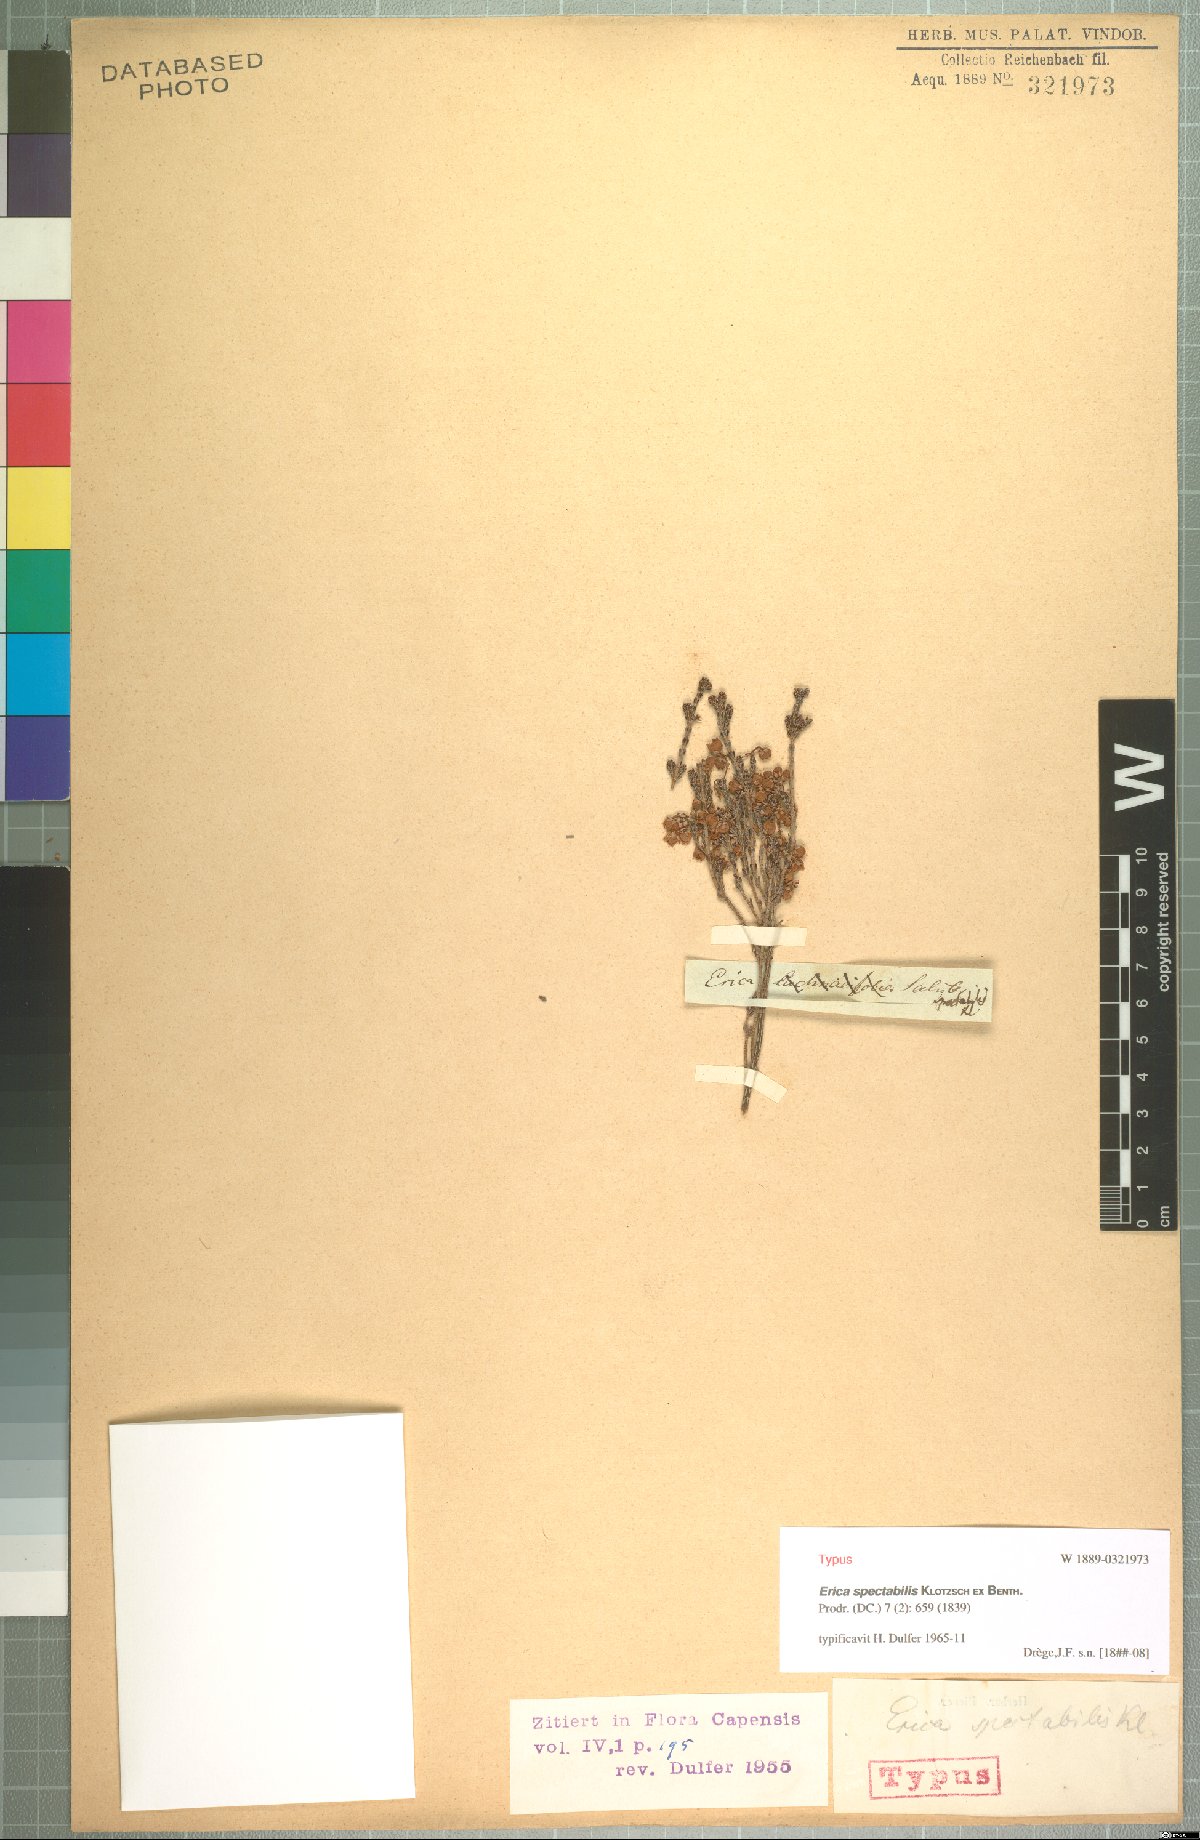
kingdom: Plantae
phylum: Tracheophyta
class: Magnoliopsida
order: Ericales
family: Ericaceae
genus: Erica
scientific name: Erica spectabilis
